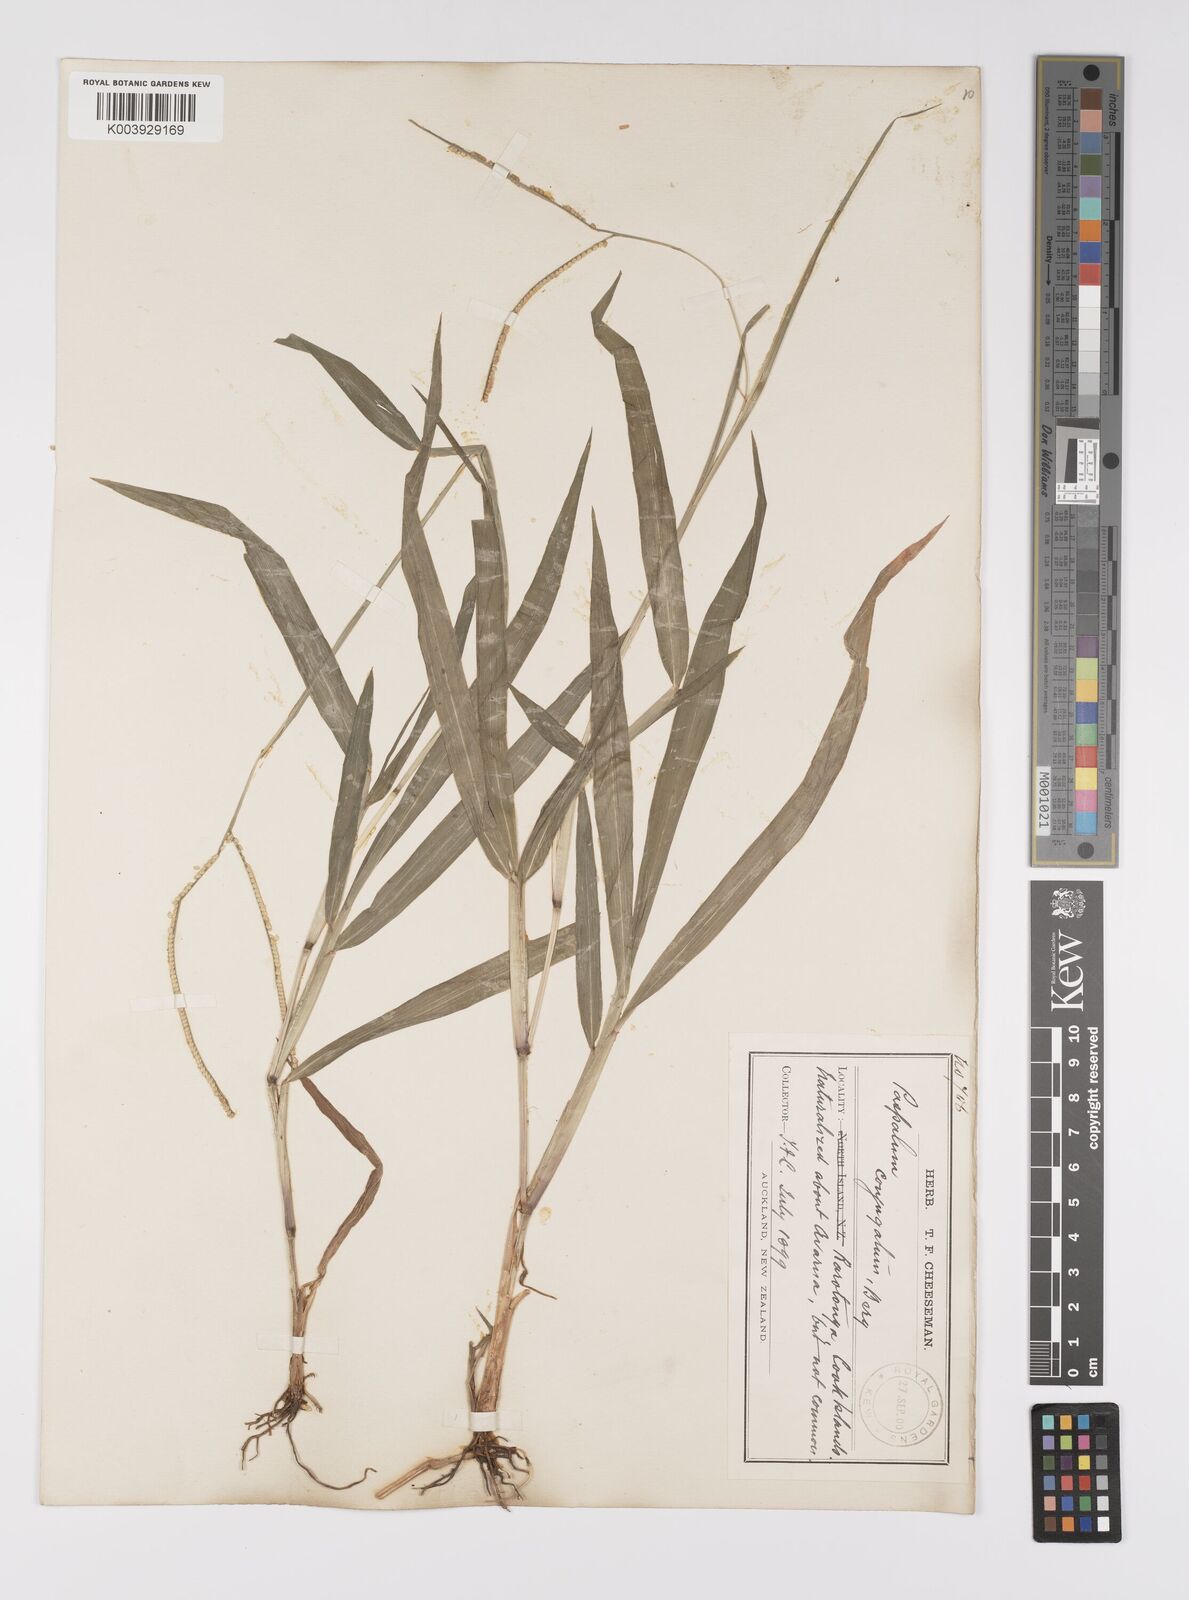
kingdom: Plantae
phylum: Tracheophyta
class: Liliopsida
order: Poales
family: Poaceae
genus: Paspalum
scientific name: Paspalum conjugatum
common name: Hilograss
